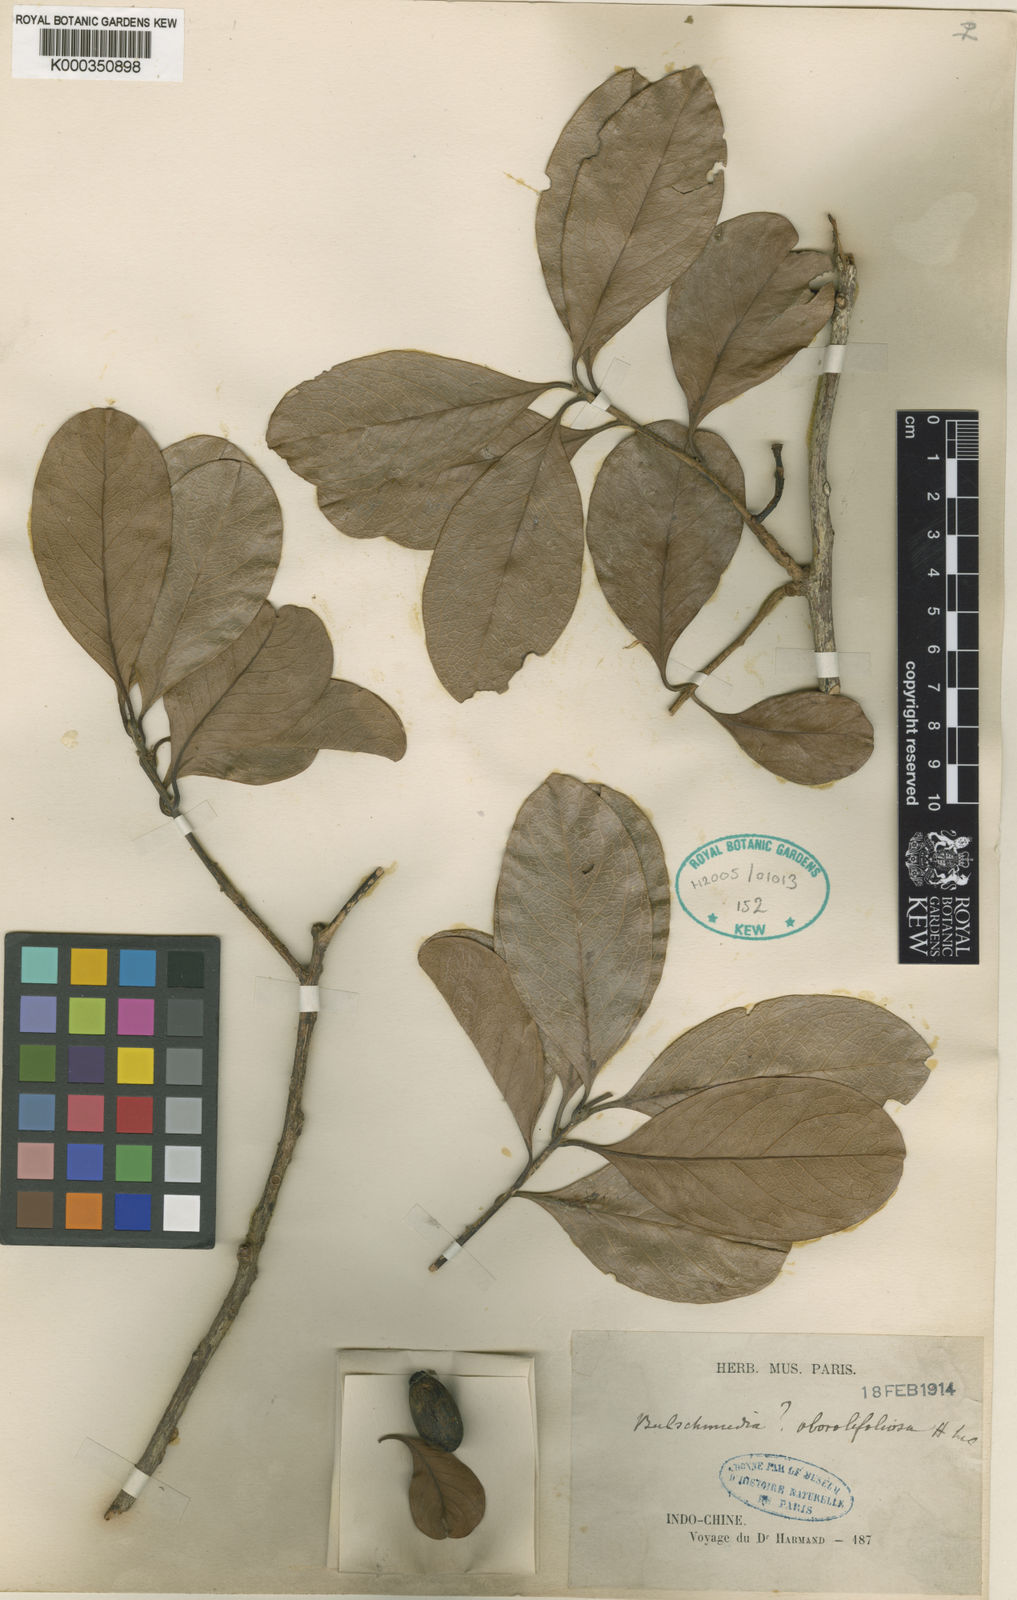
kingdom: Plantae
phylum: Tracheophyta
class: Magnoliopsida
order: Laurales
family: Lauraceae
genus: Beilschmiedia
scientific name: Beilschmiedia roxburghiana
